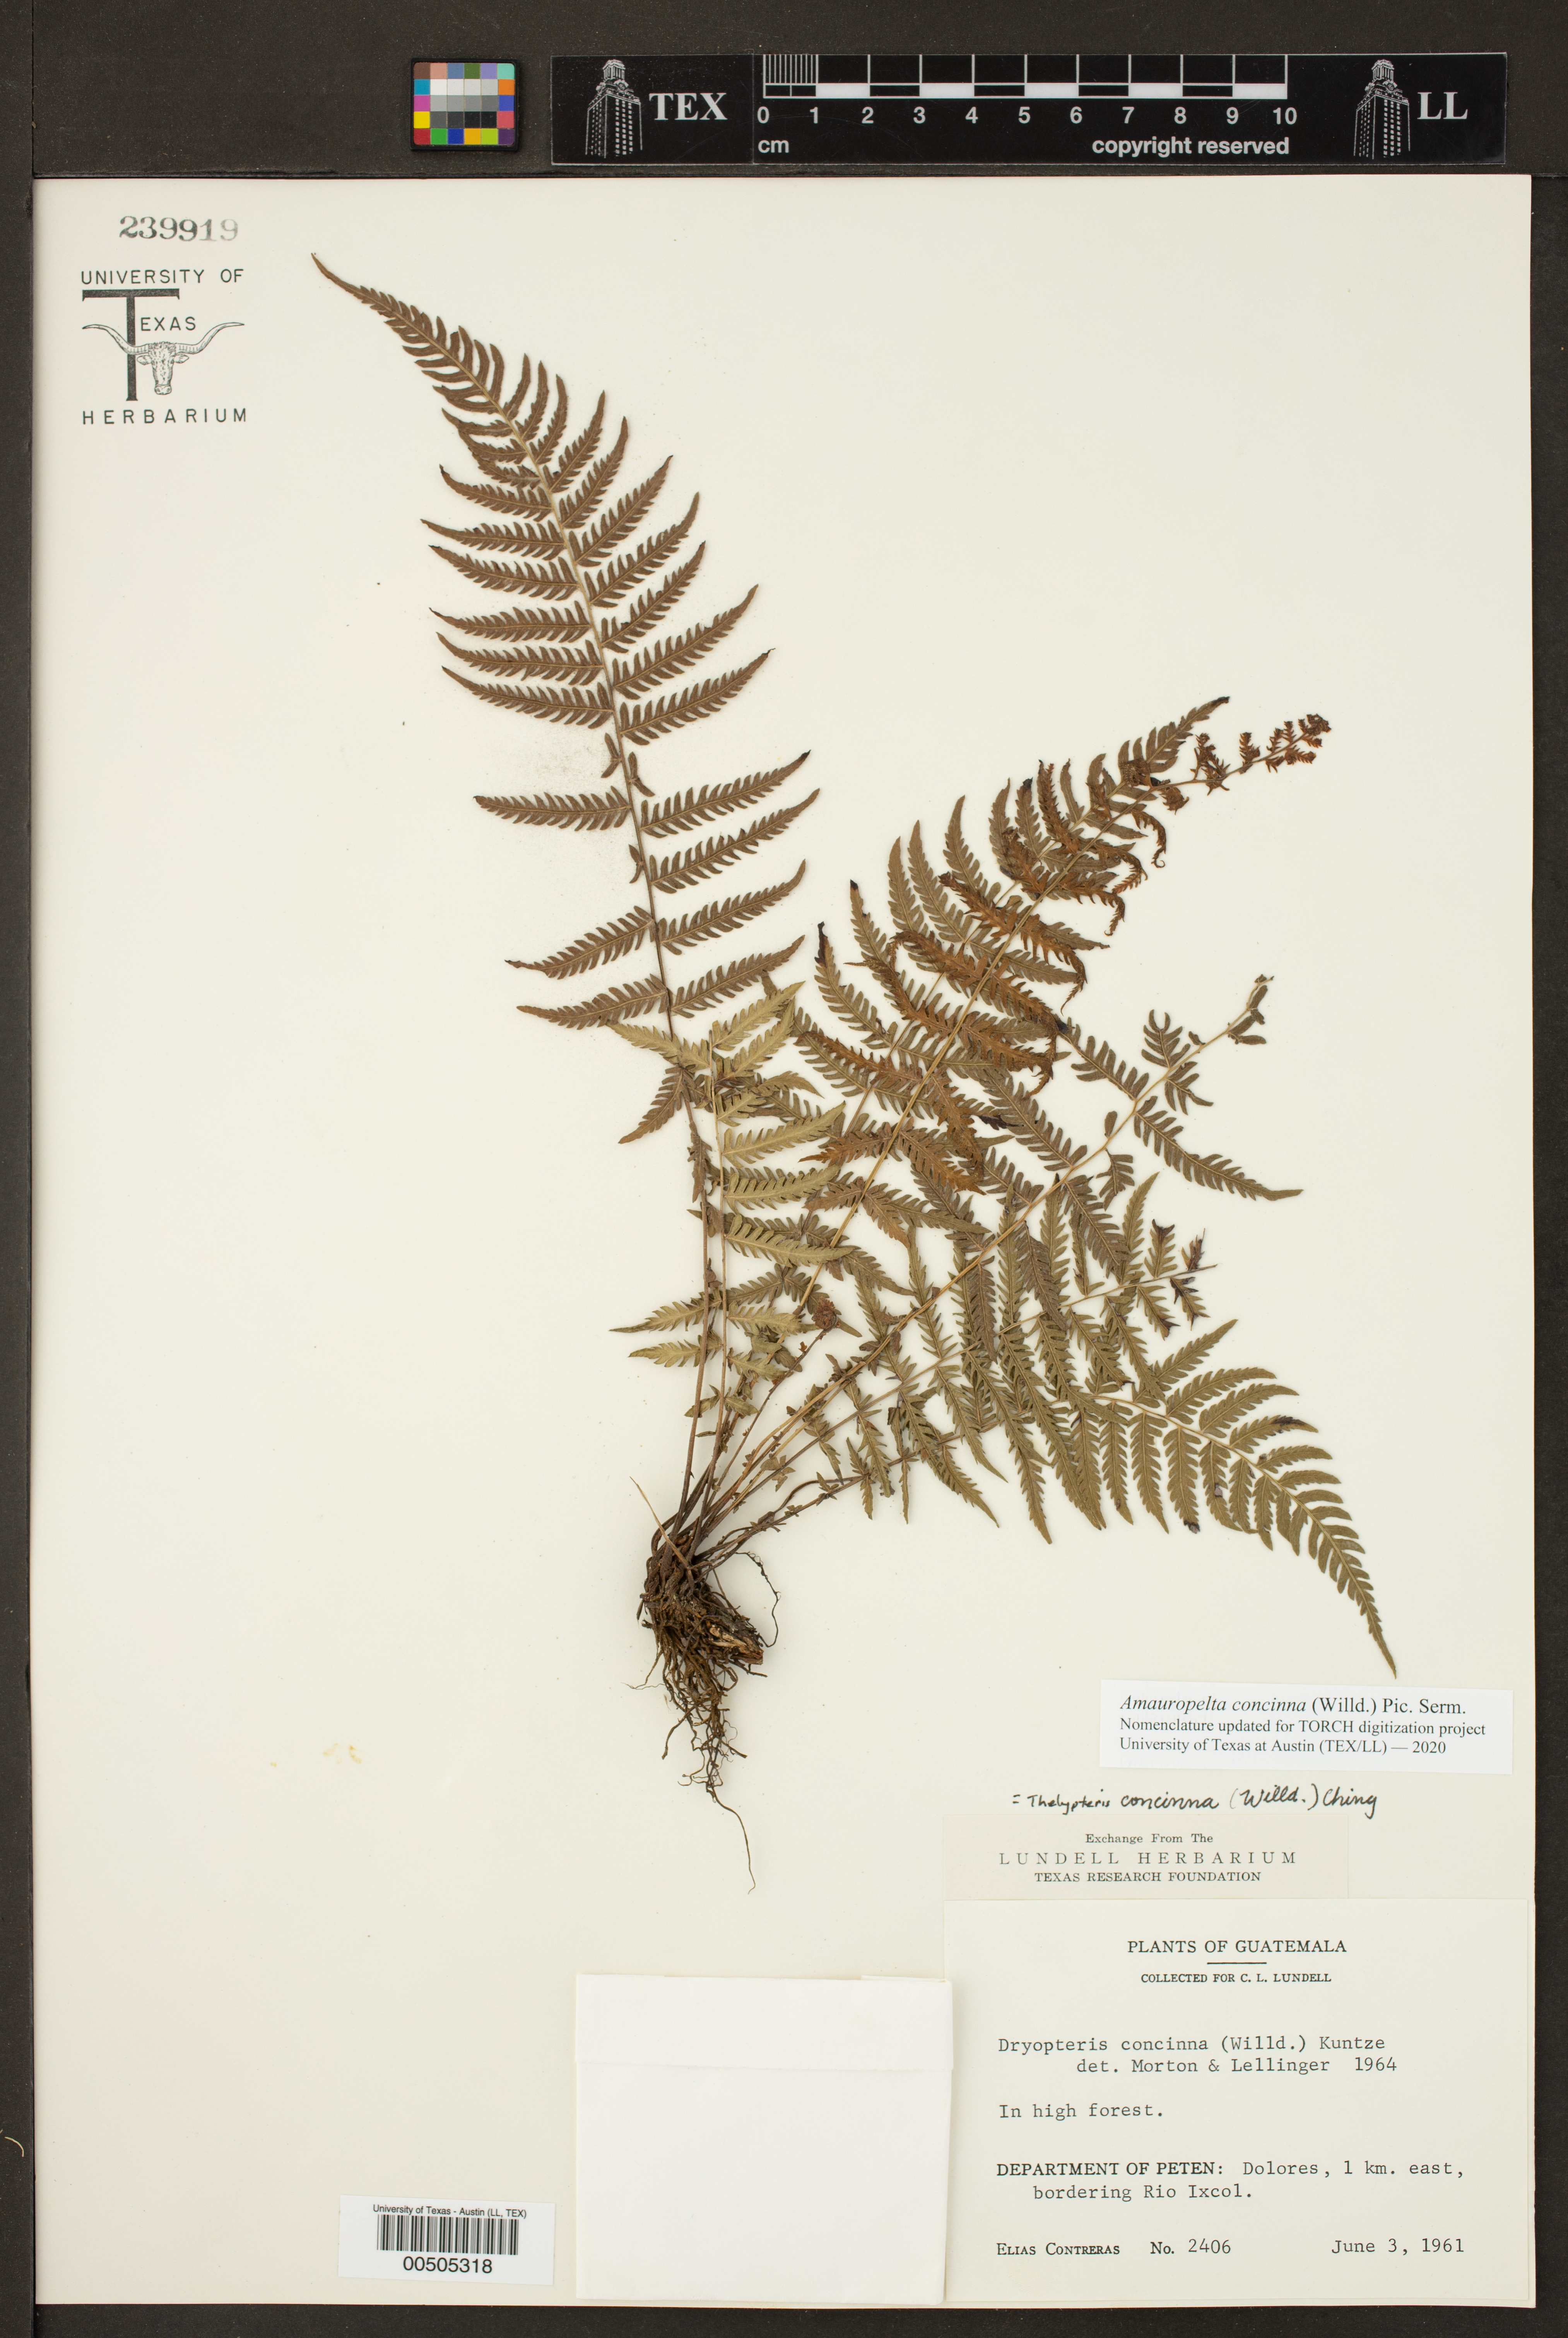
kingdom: Plantae
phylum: Tracheophyta
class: Polypodiopsida
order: Polypodiales
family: Thelypteridaceae
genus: Amauropelta
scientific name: Amauropelta concinna
